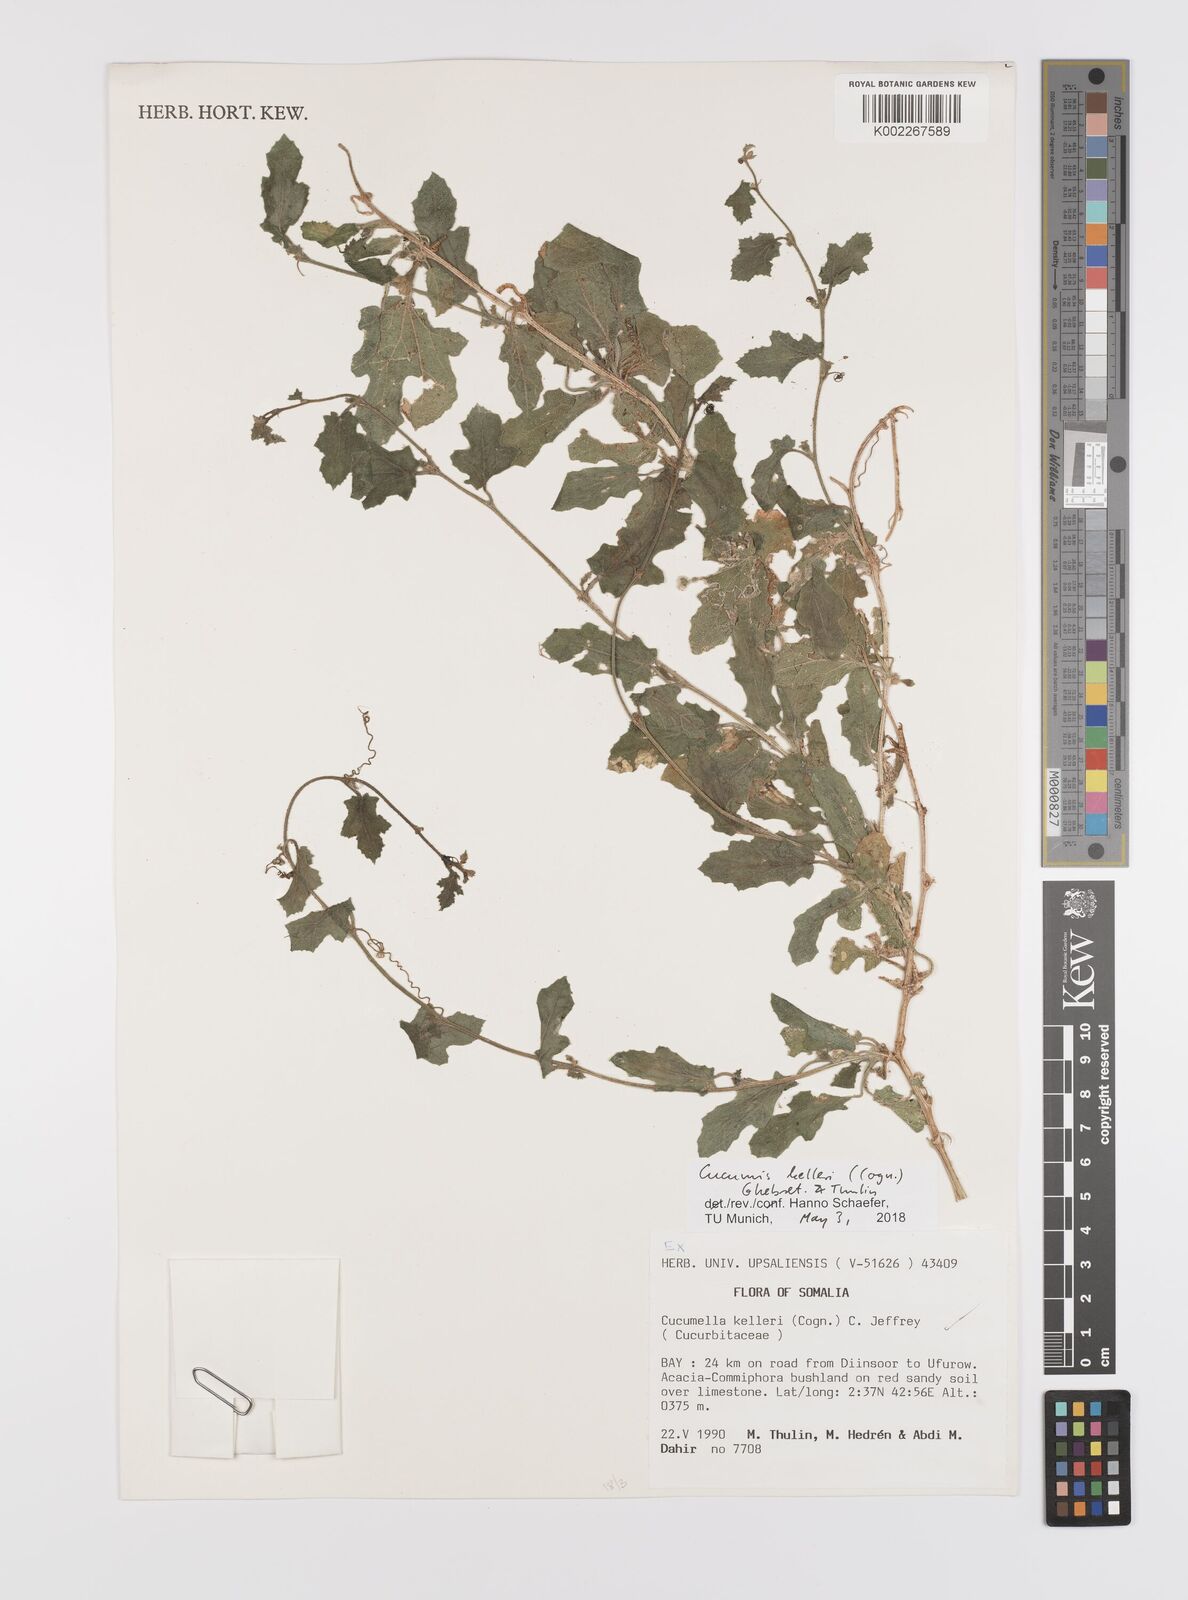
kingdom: Plantae
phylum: Tracheophyta
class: Magnoliopsida
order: Cucurbitales
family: Cucurbitaceae
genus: Cucumis
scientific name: Cucumis kelleri
